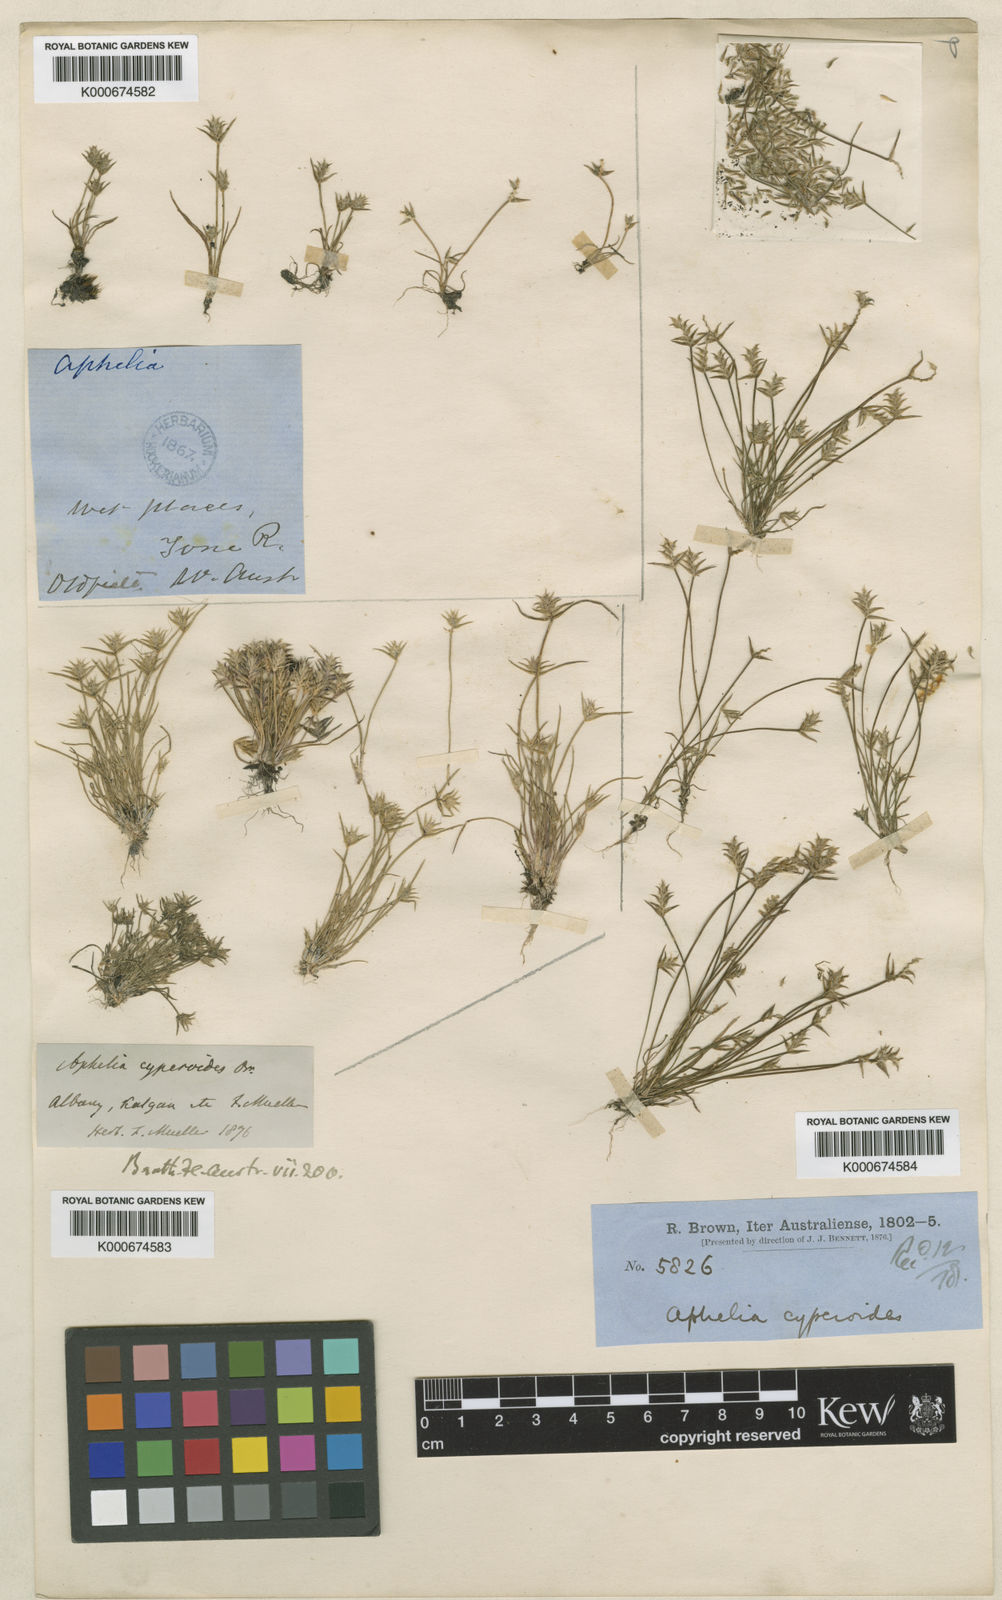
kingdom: Plantae
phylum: Tracheophyta
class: Liliopsida
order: Poales
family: Restionaceae
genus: Aphelia
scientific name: Aphelia cyperoides
